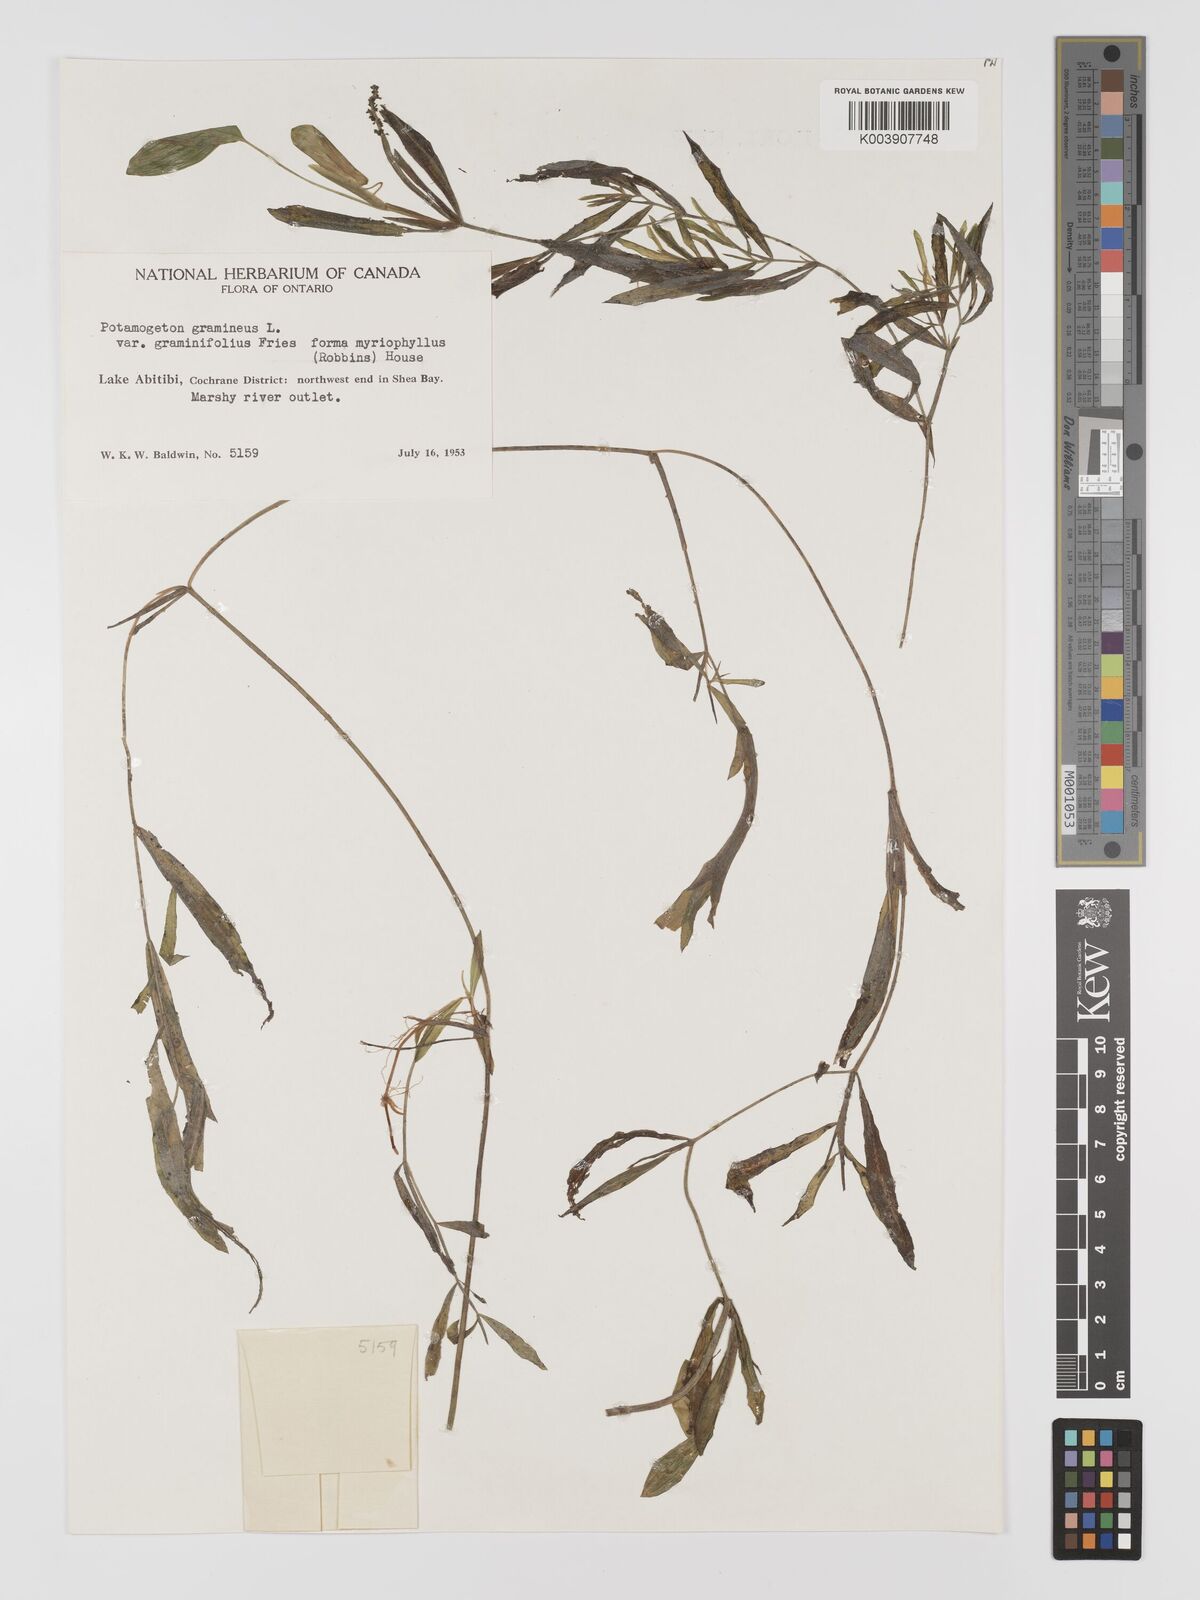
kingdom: Plantae
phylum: Tracheophyta
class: Liliopsida
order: Alismatales
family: Potamogetonaceae
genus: Potamogeton
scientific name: Potamogeton gramineus
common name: Various-leaved pondweed
